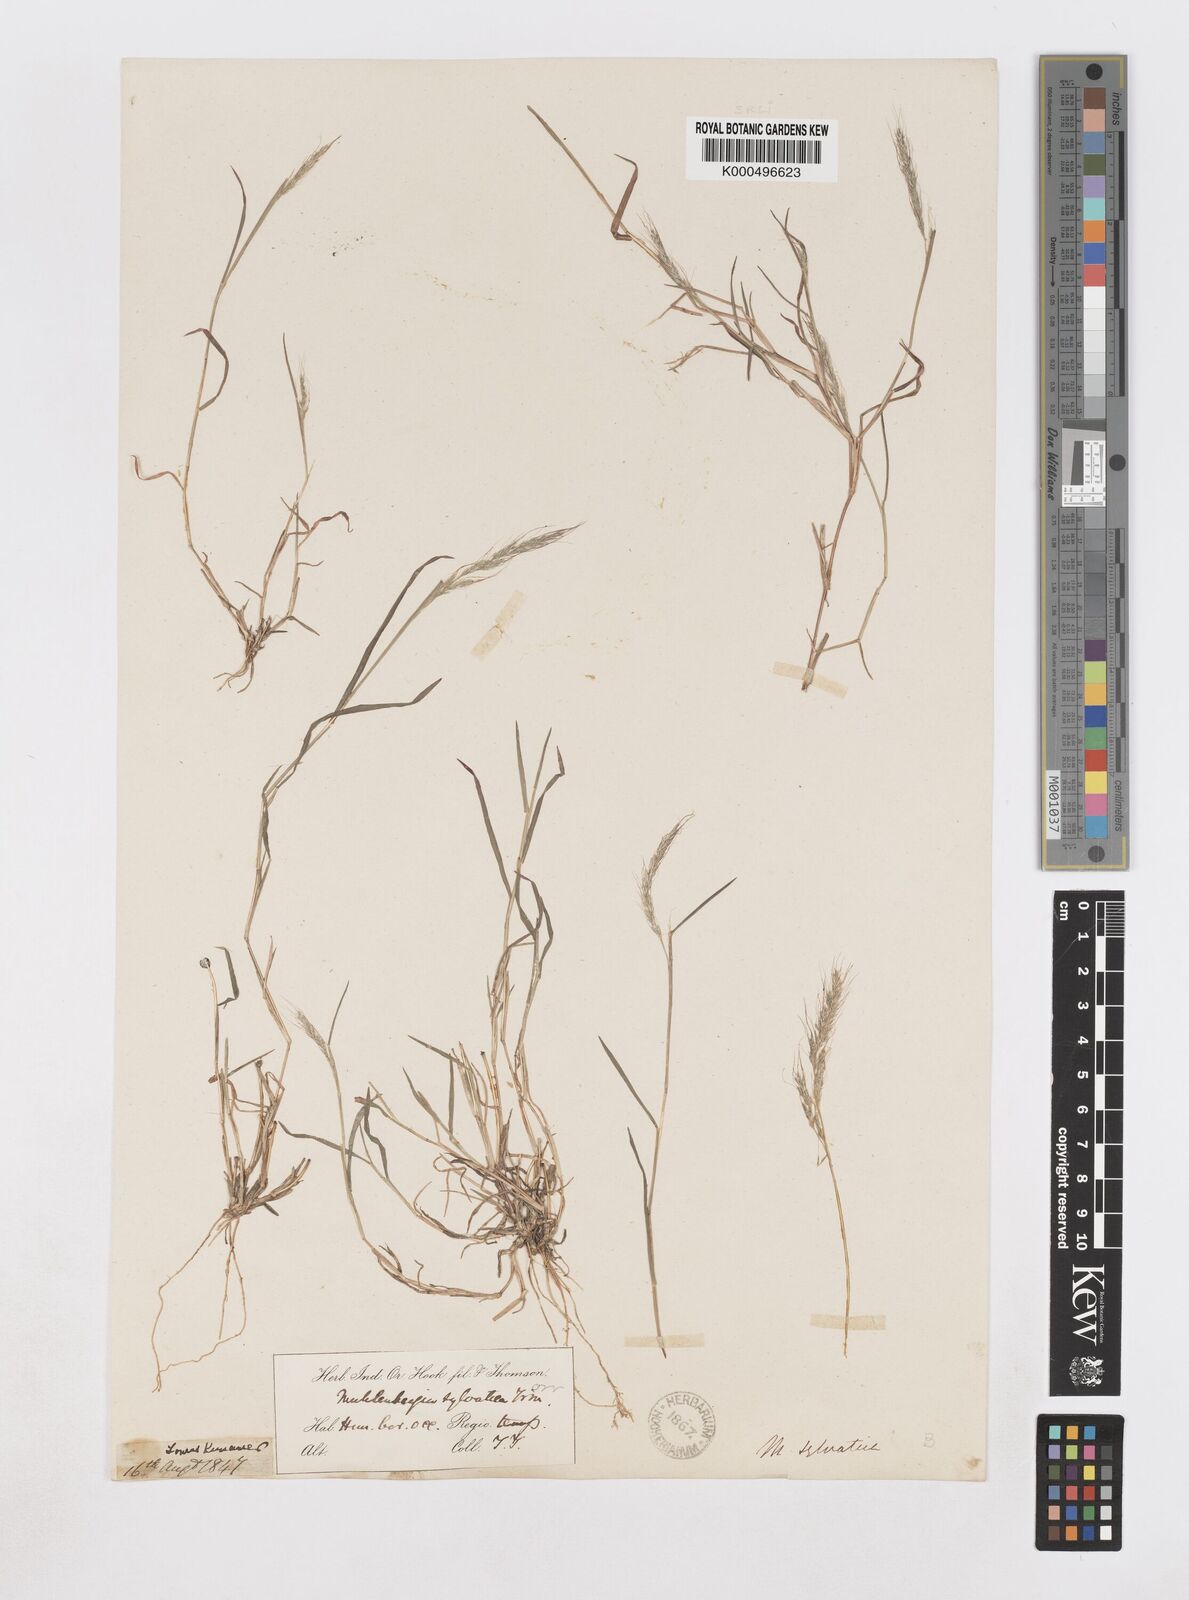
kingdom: Plantae
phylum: Tracheophyta
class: Liliopsida
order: Poales
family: Poaceae
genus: Muhlenbergia
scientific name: Muhlenbergia duthieana
